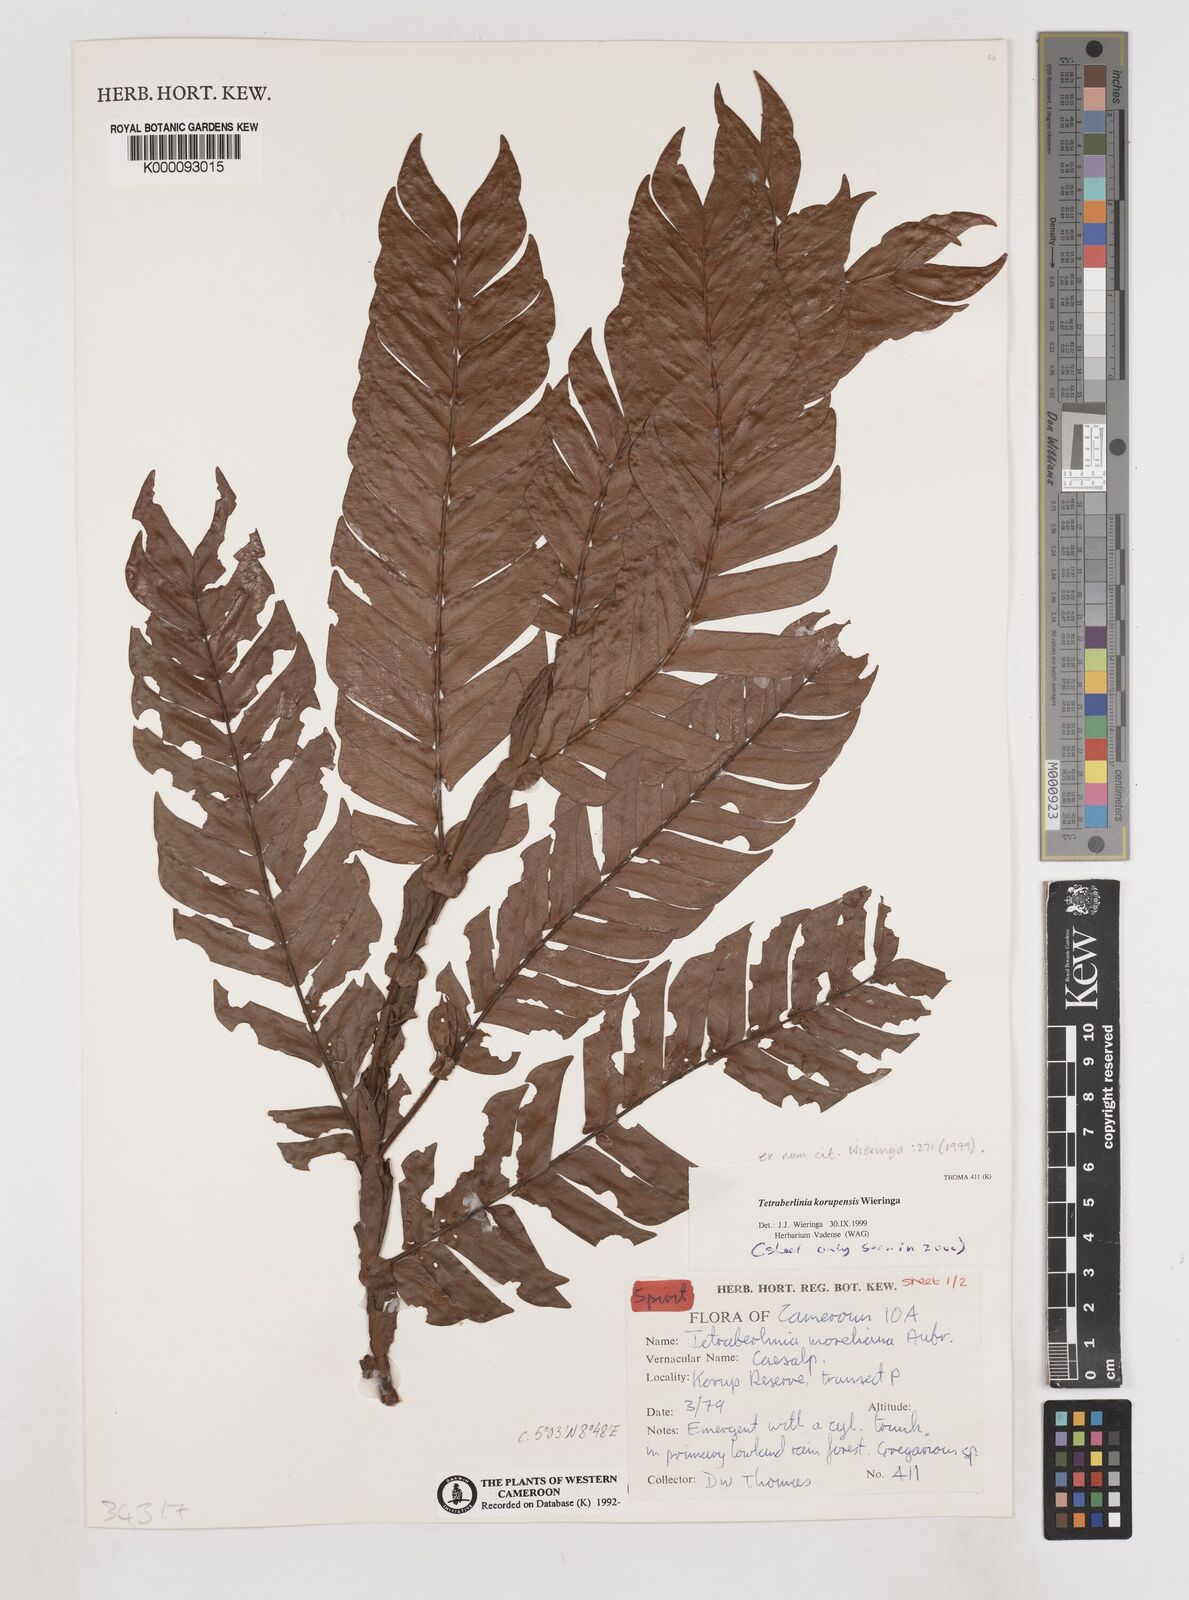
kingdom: Plantae
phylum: Tracheophyta
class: Magnoliopsida
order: Fabales
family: Fabaceae
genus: Tetraberlinia
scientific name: Tetraberlinia korupensis
